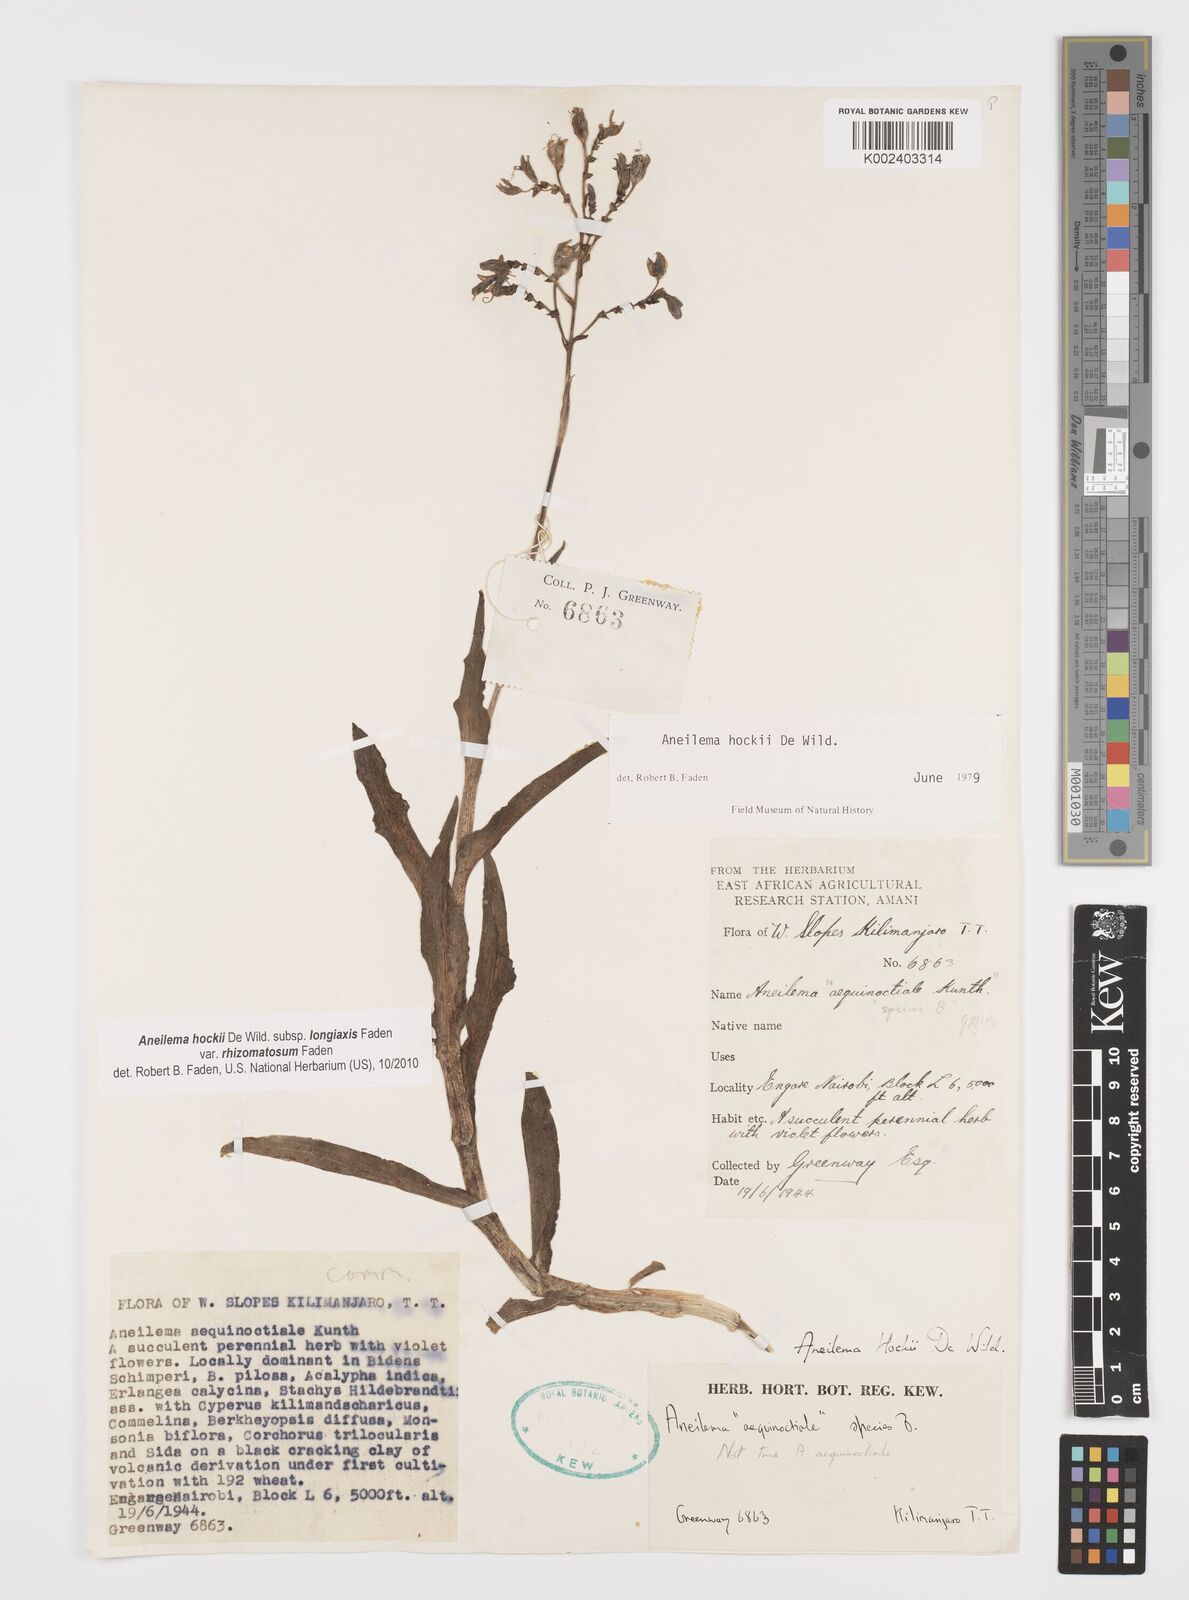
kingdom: Plantae
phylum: Tracheophyta
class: Liliopsida
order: Commelinales
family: Commelinaceae
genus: Aneilema
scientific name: Aneilema hockii
